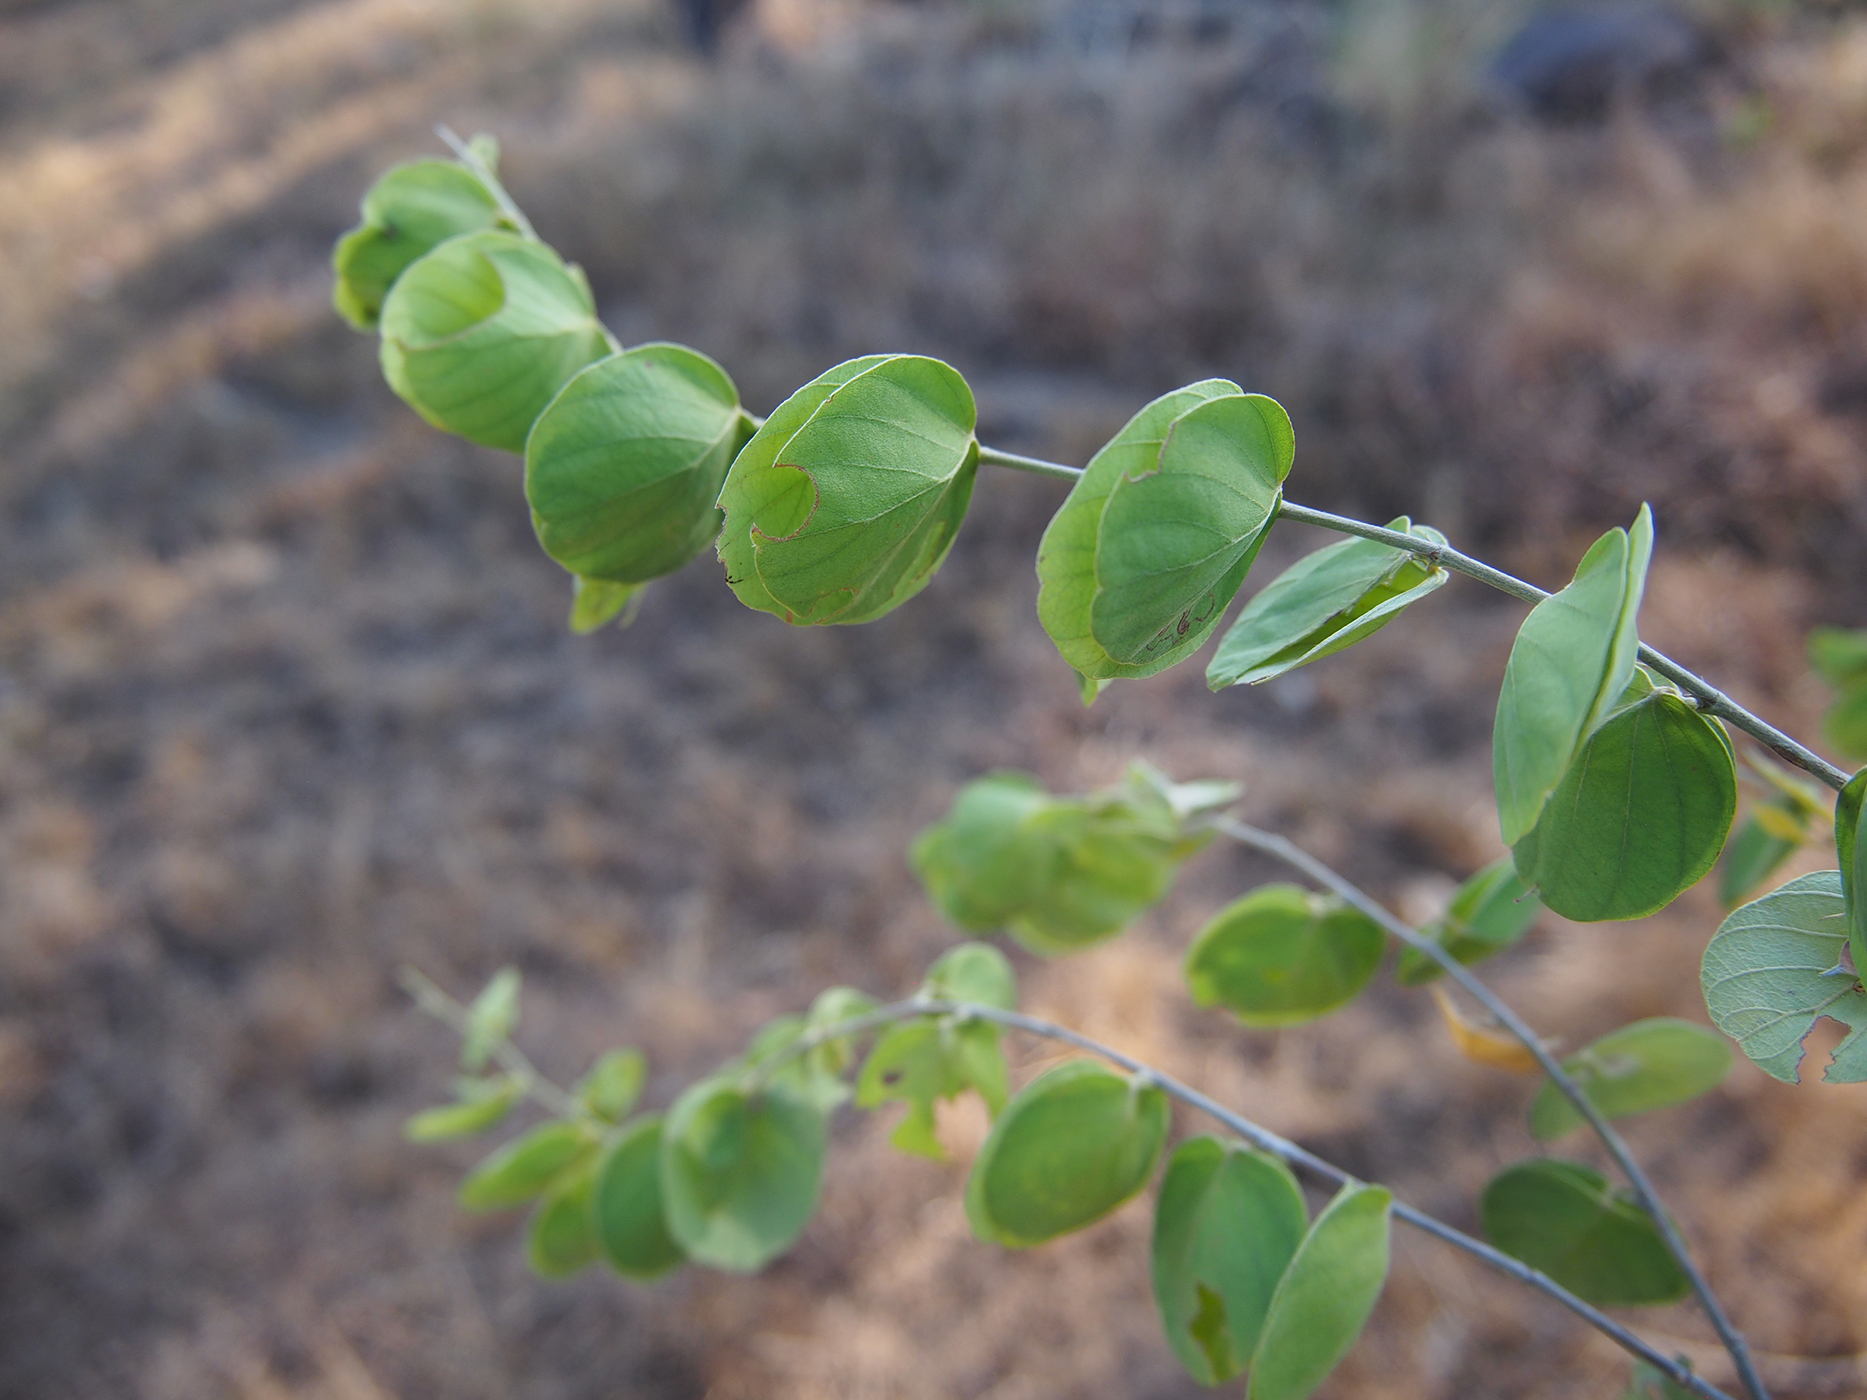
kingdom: Plantae
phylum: Tracheophyta
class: Magnoliopsida
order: Fabales
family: Fabaceae
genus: Phyllodium
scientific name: Phyllodium vestitum
